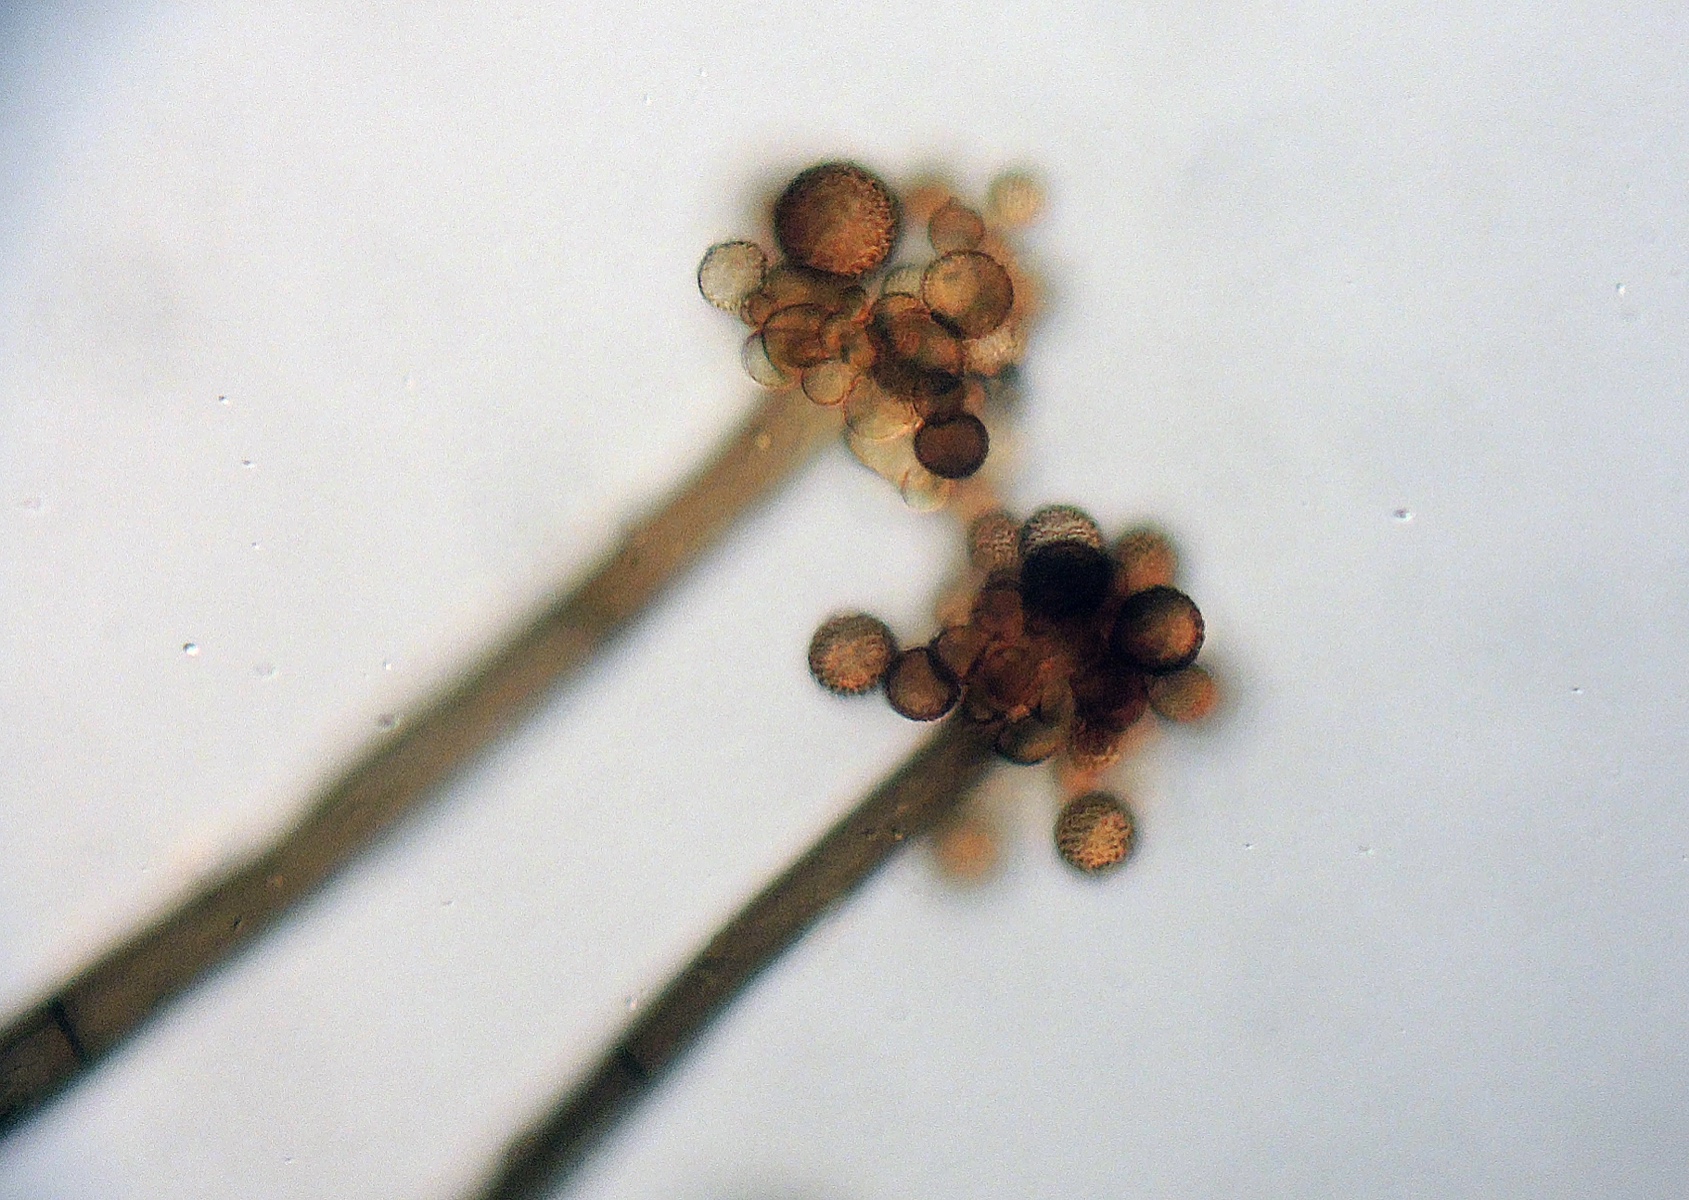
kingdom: Fungi
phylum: Ascomycota
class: Dothideomycetes
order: Pleosporales
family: Periconiaceae
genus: Periconia
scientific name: Periconia cookei
